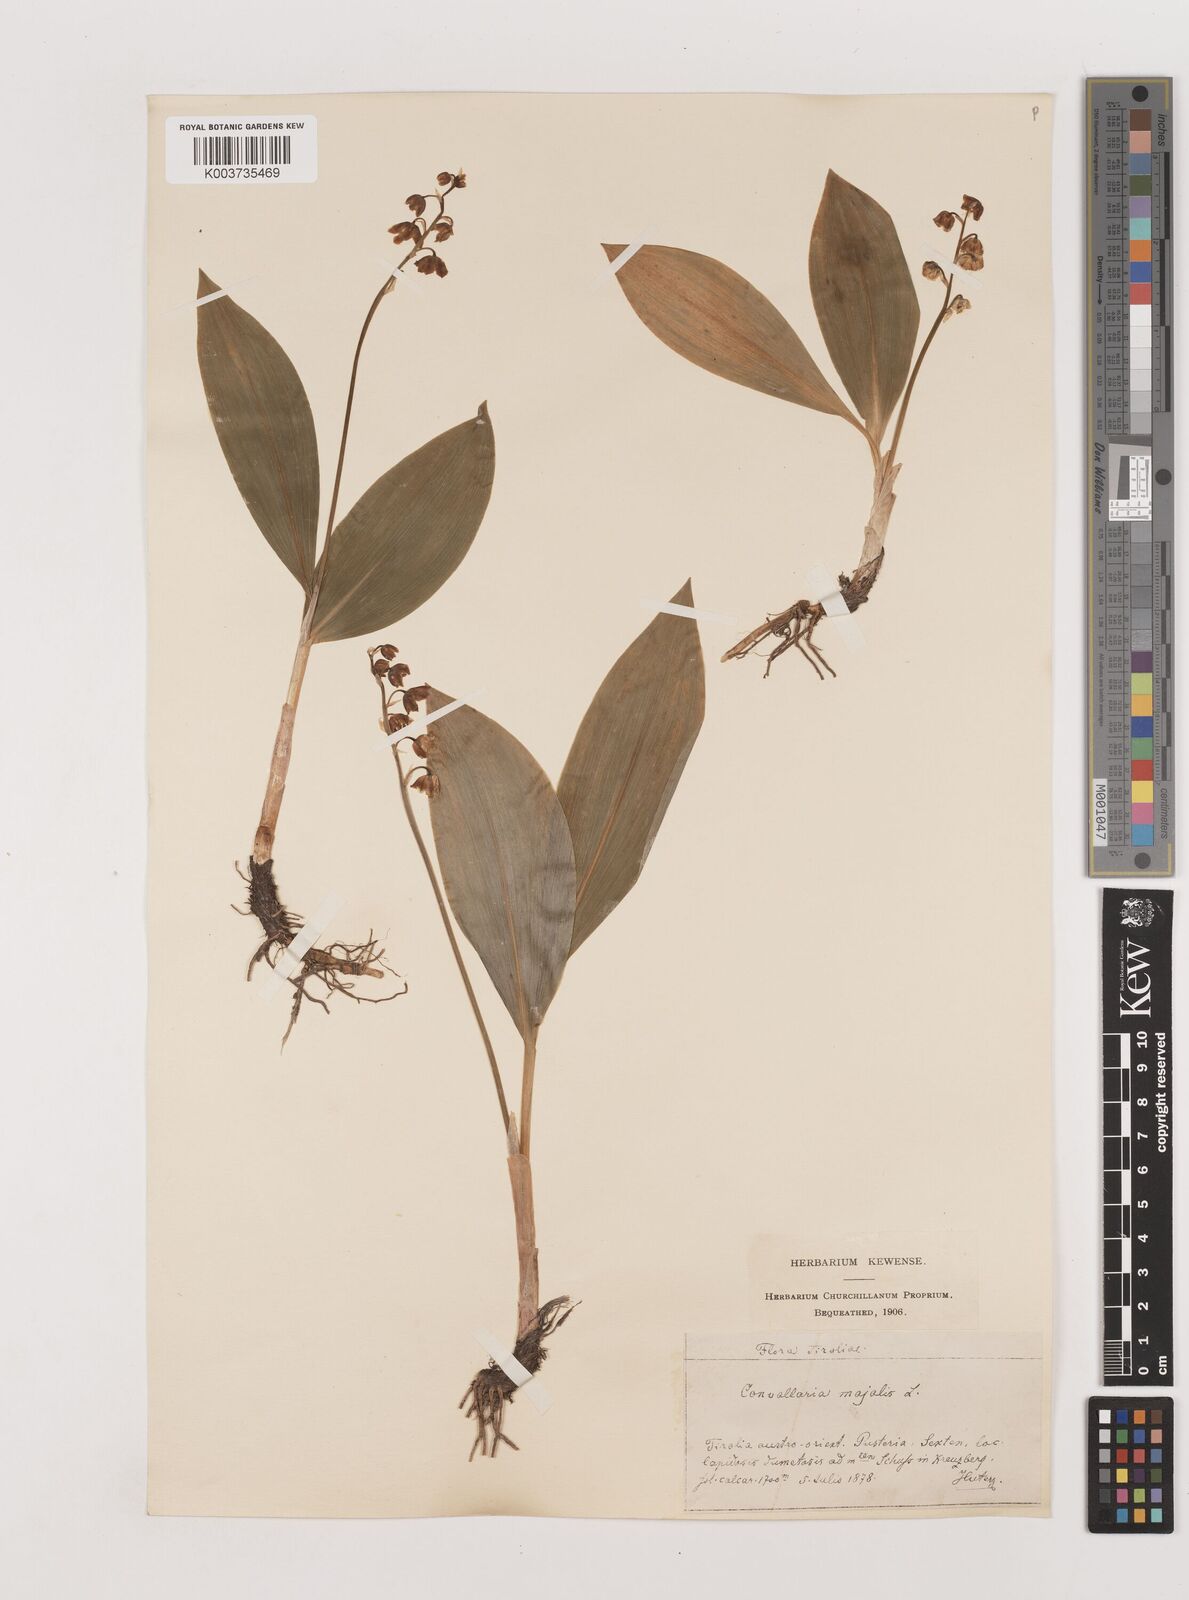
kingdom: Plantae
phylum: Tracheophyta
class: Liliopsida
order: Asparagales
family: Asparagaceae
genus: Convallaria
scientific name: Convallaria majalis
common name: Lily-of-the-valley
